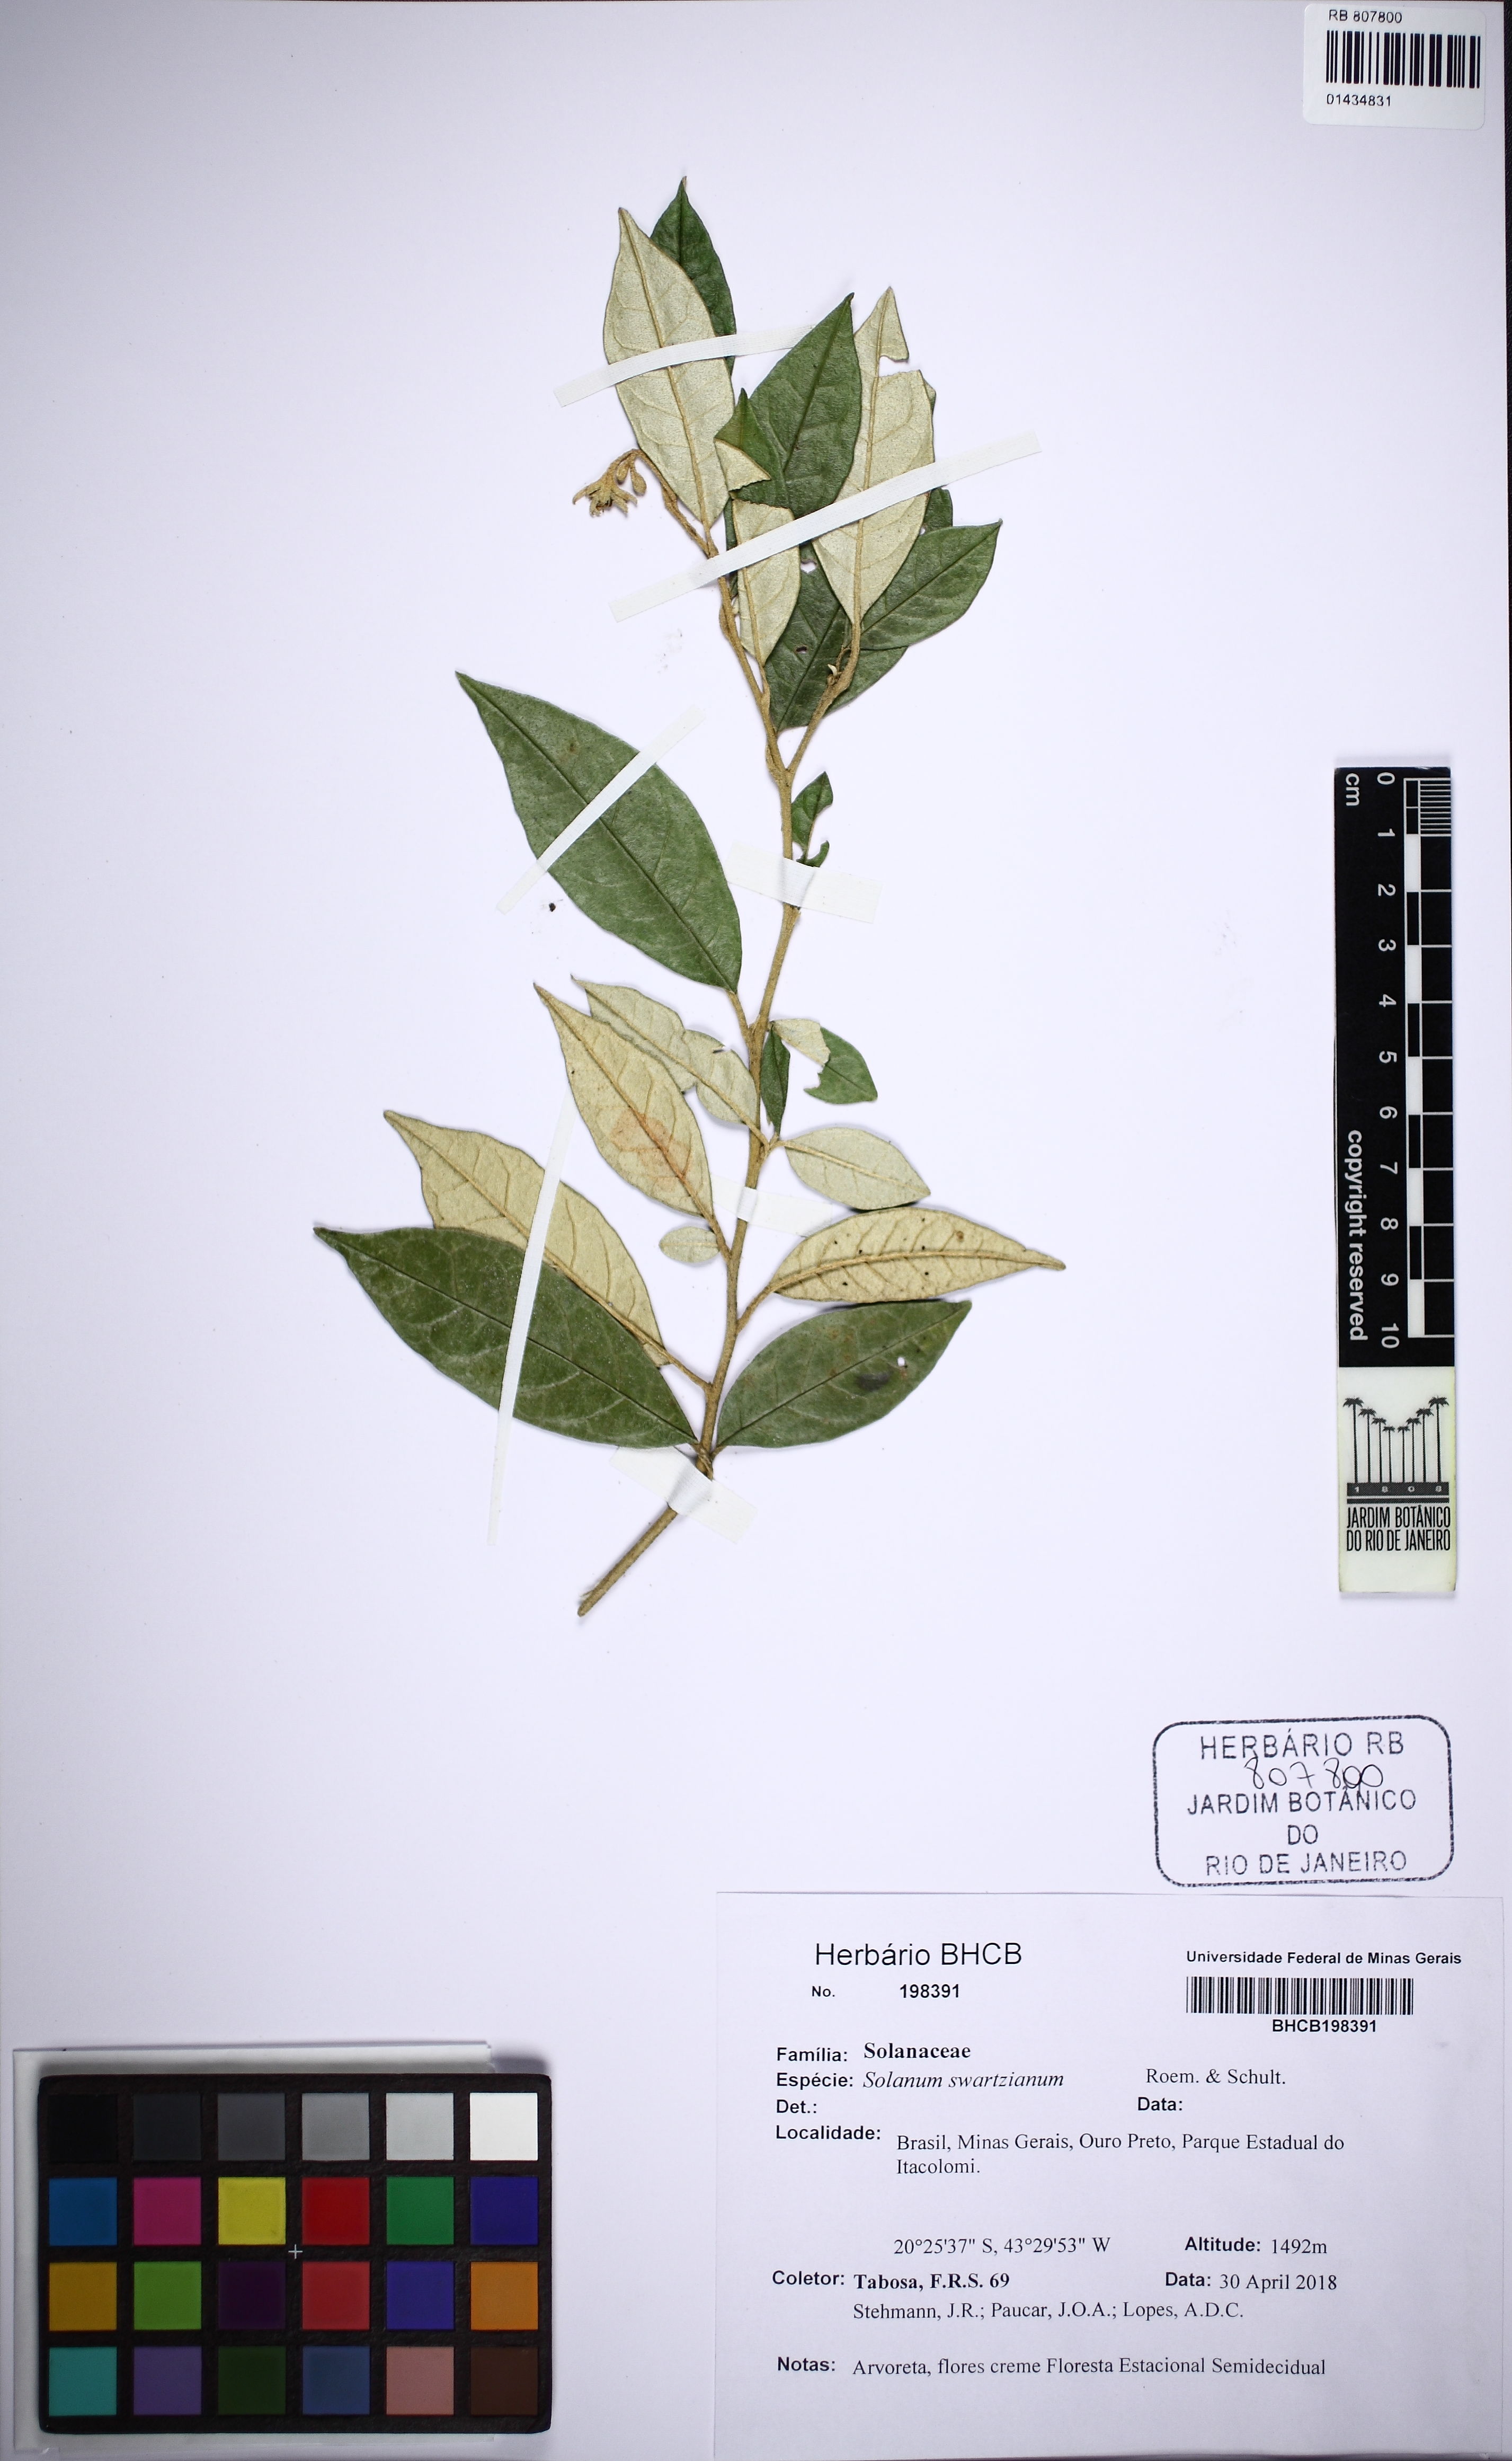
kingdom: Plantae
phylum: Tracheophyta
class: Magnoliopsida
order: Solanales
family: Solanaceae
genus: Solanum
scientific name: Solanum swartzianum
